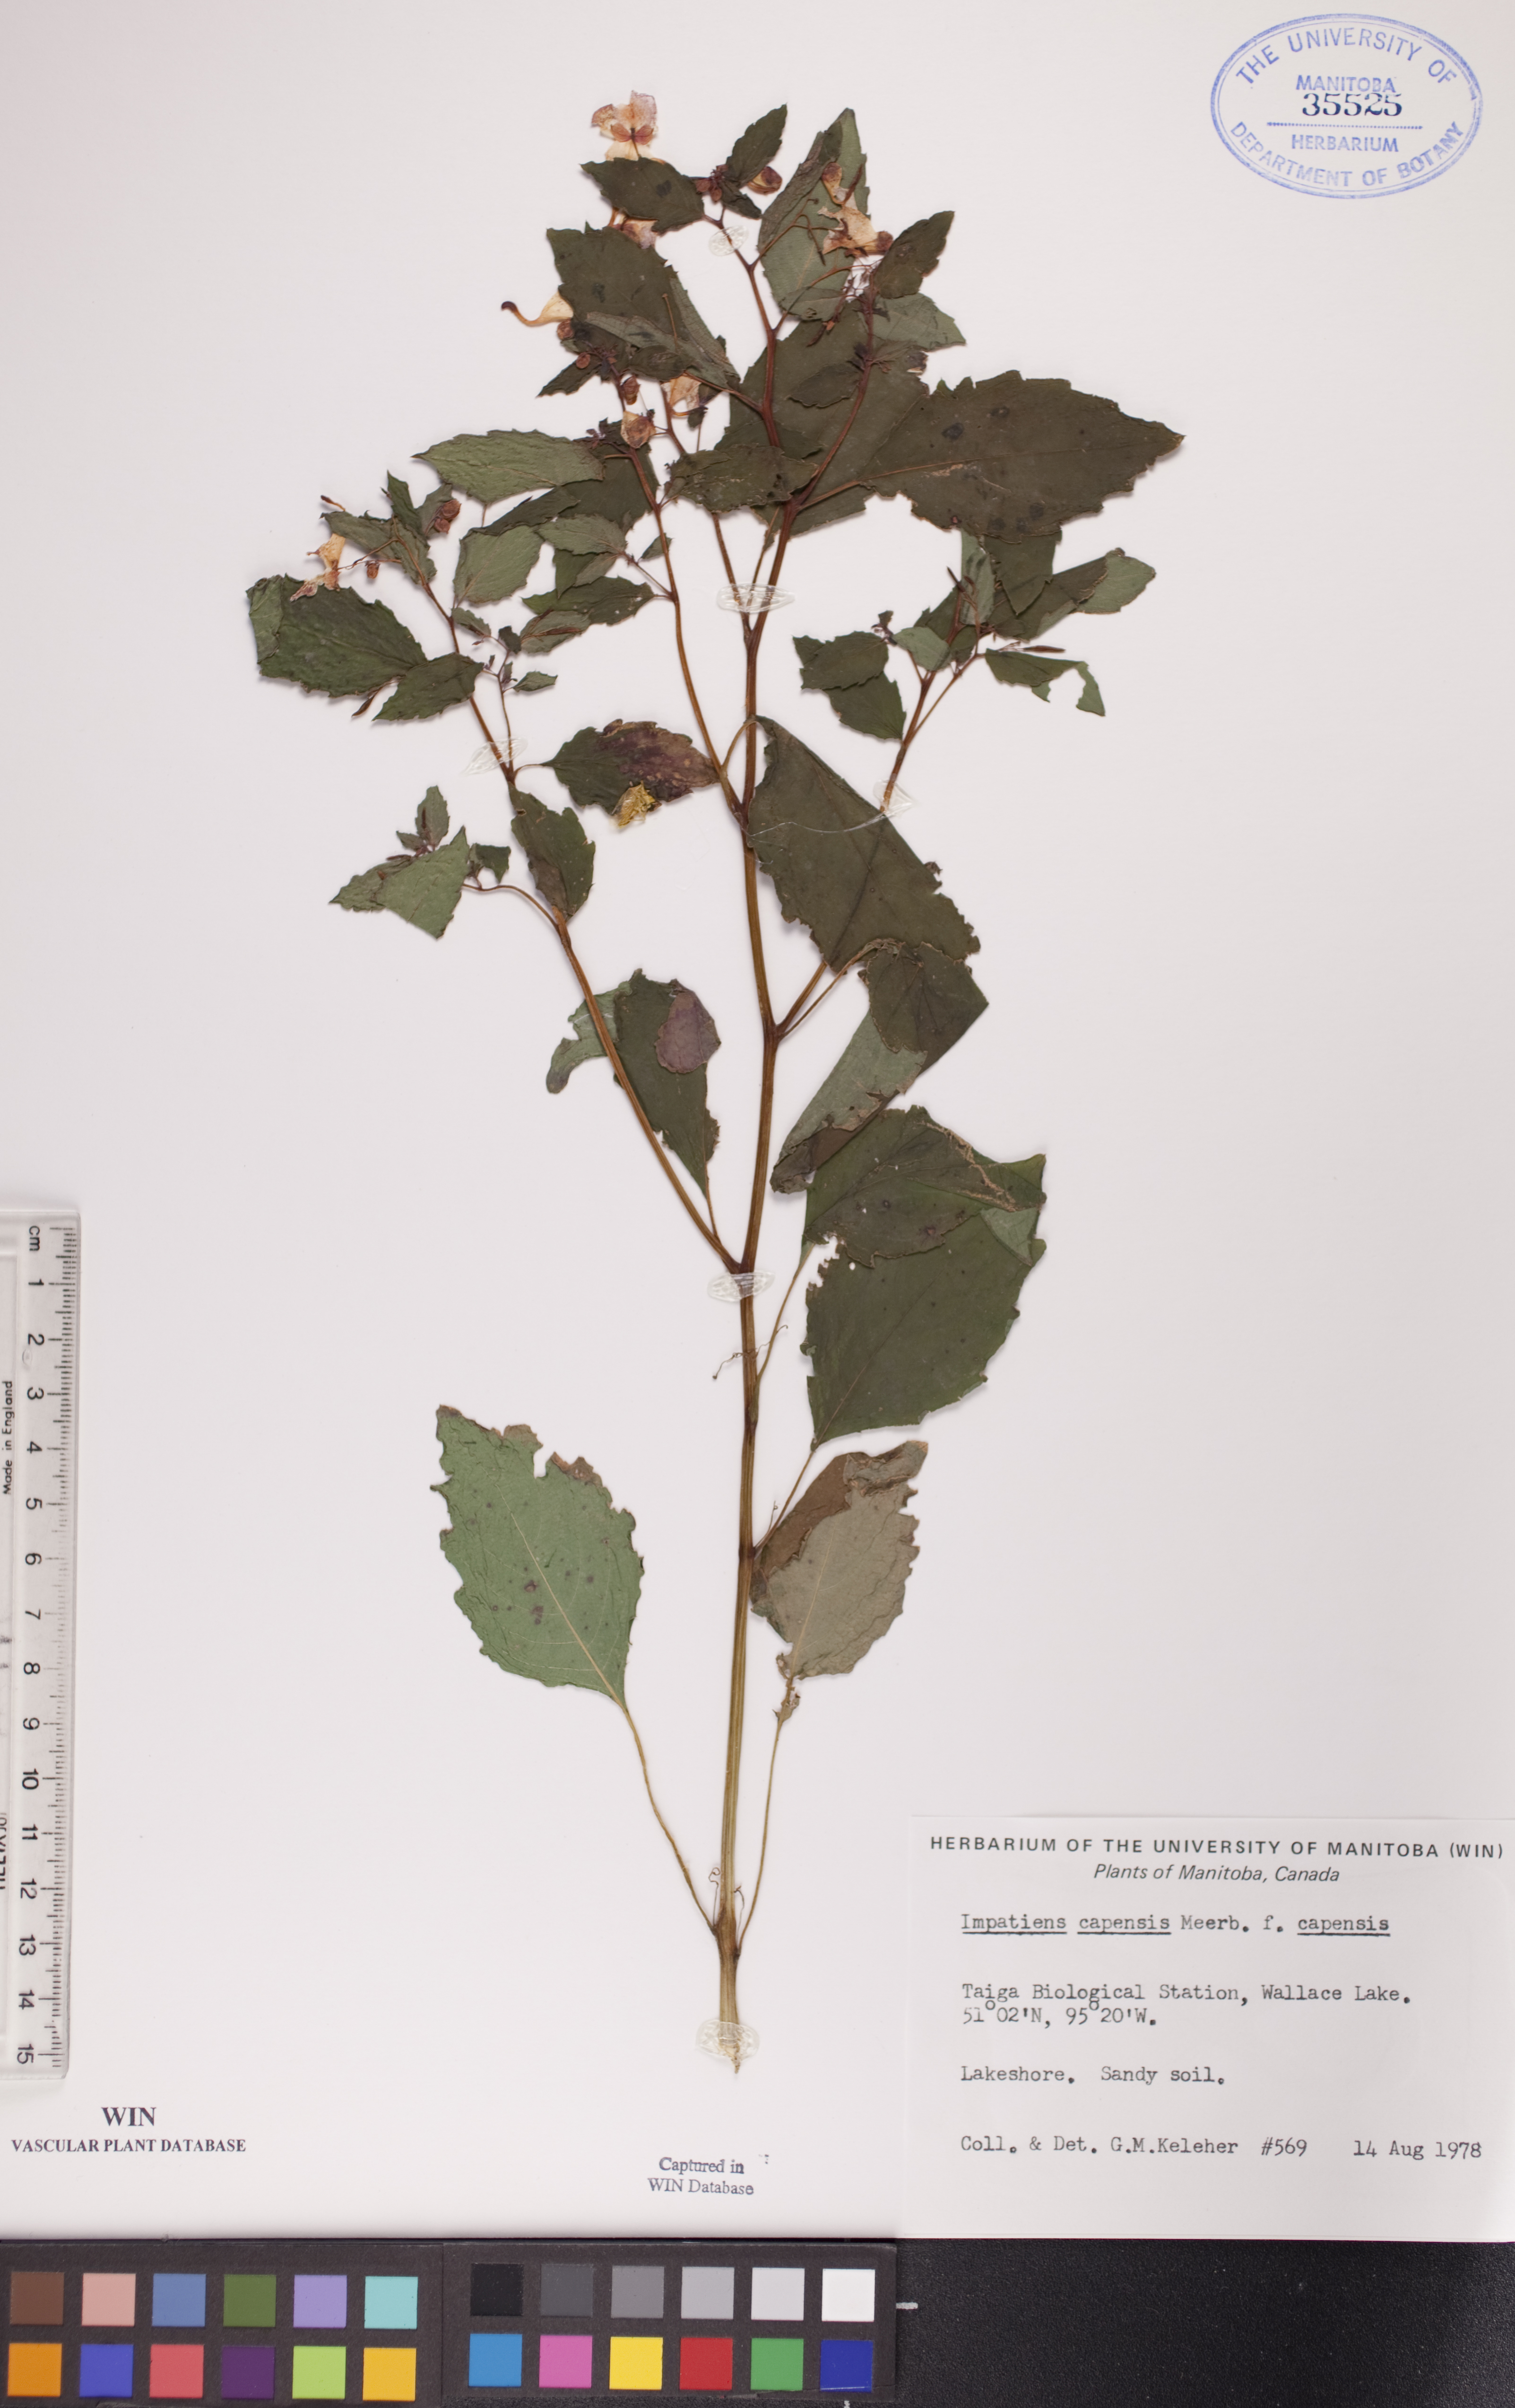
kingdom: Plantae
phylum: Tracheophyta
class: Magnoliopsida
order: Ericales
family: Balsaminaceae
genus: Impatiens
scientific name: Impatiens capensis
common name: Orange balsam
